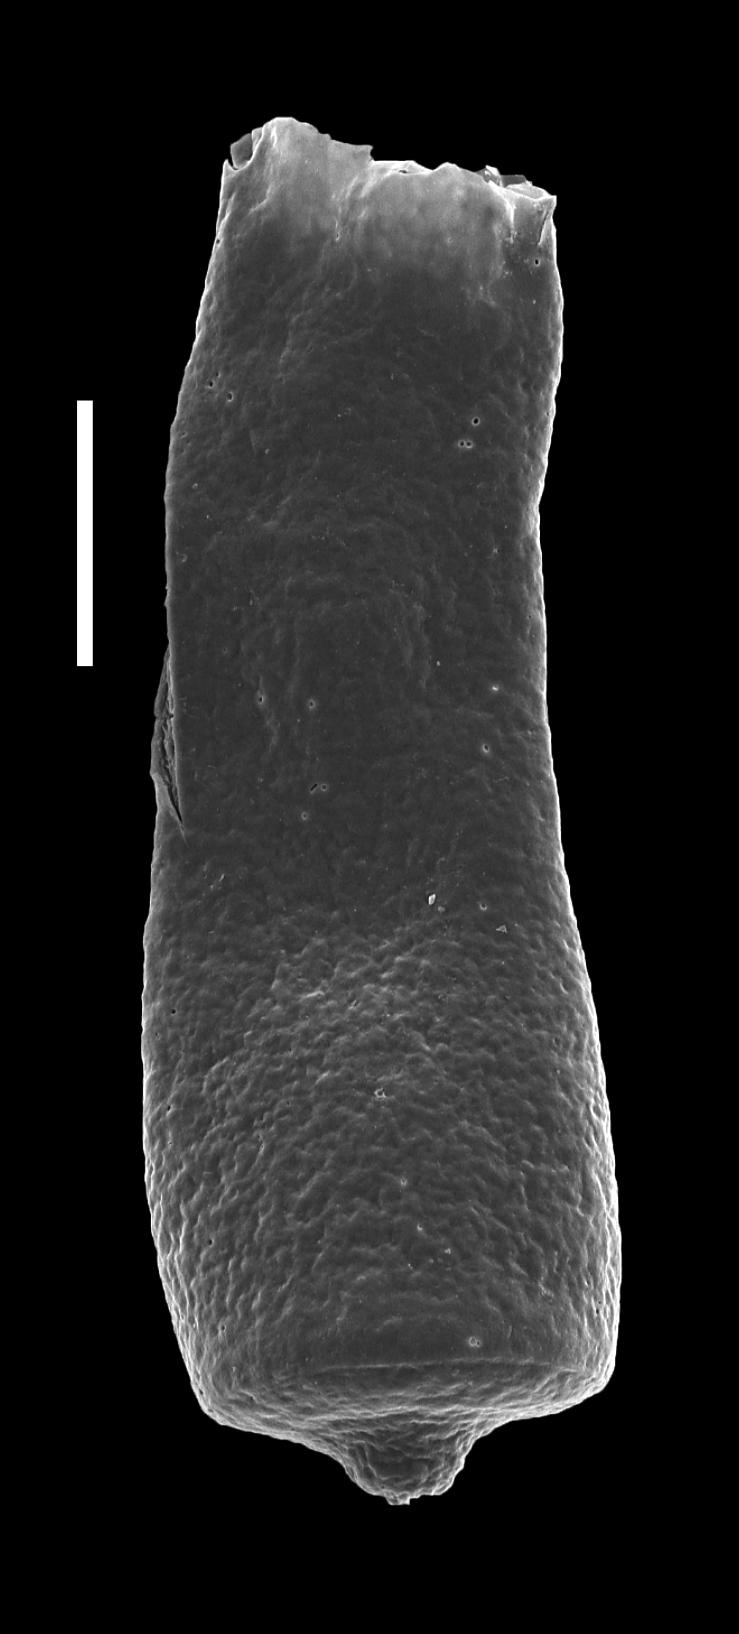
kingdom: Animalia
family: Conochitinidae
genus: Conochitina
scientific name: Conochitina
